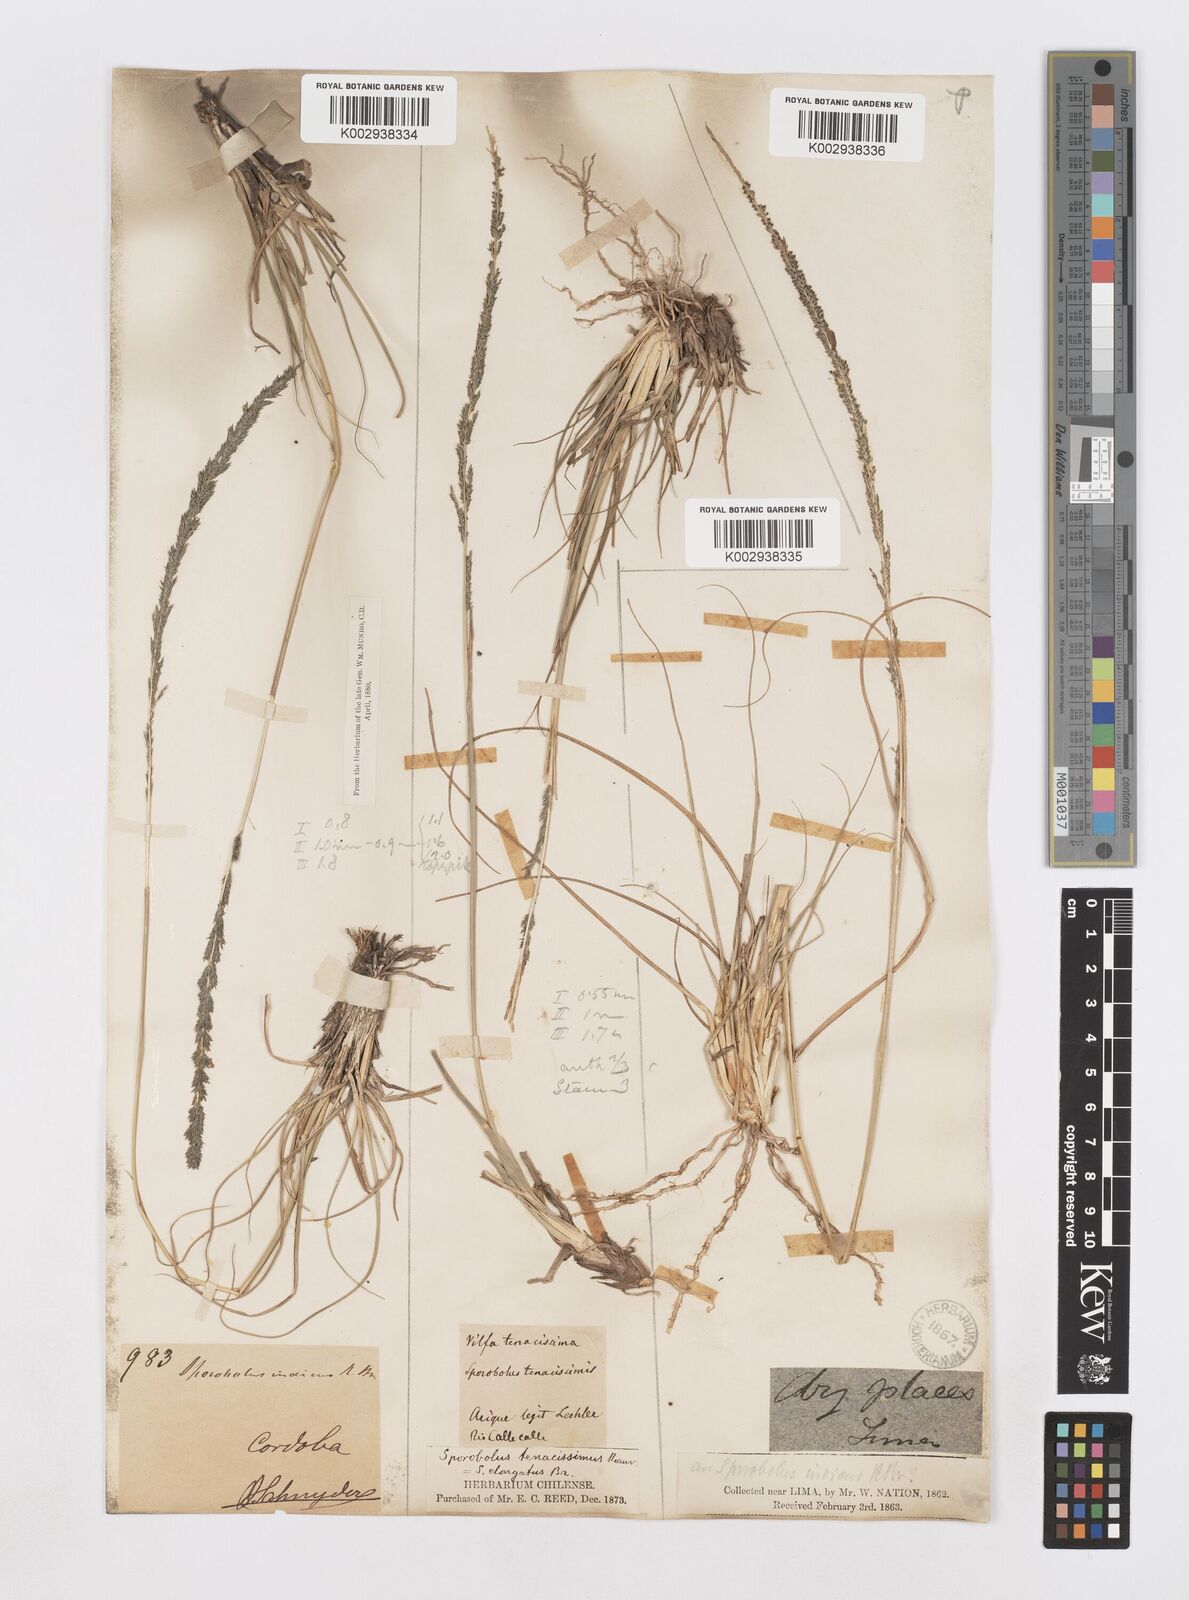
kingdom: Plantae
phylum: Tracheophyta
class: Liliopsida
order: Poales
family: Poaceae
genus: Sporobolus
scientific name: Sporobolus minor
